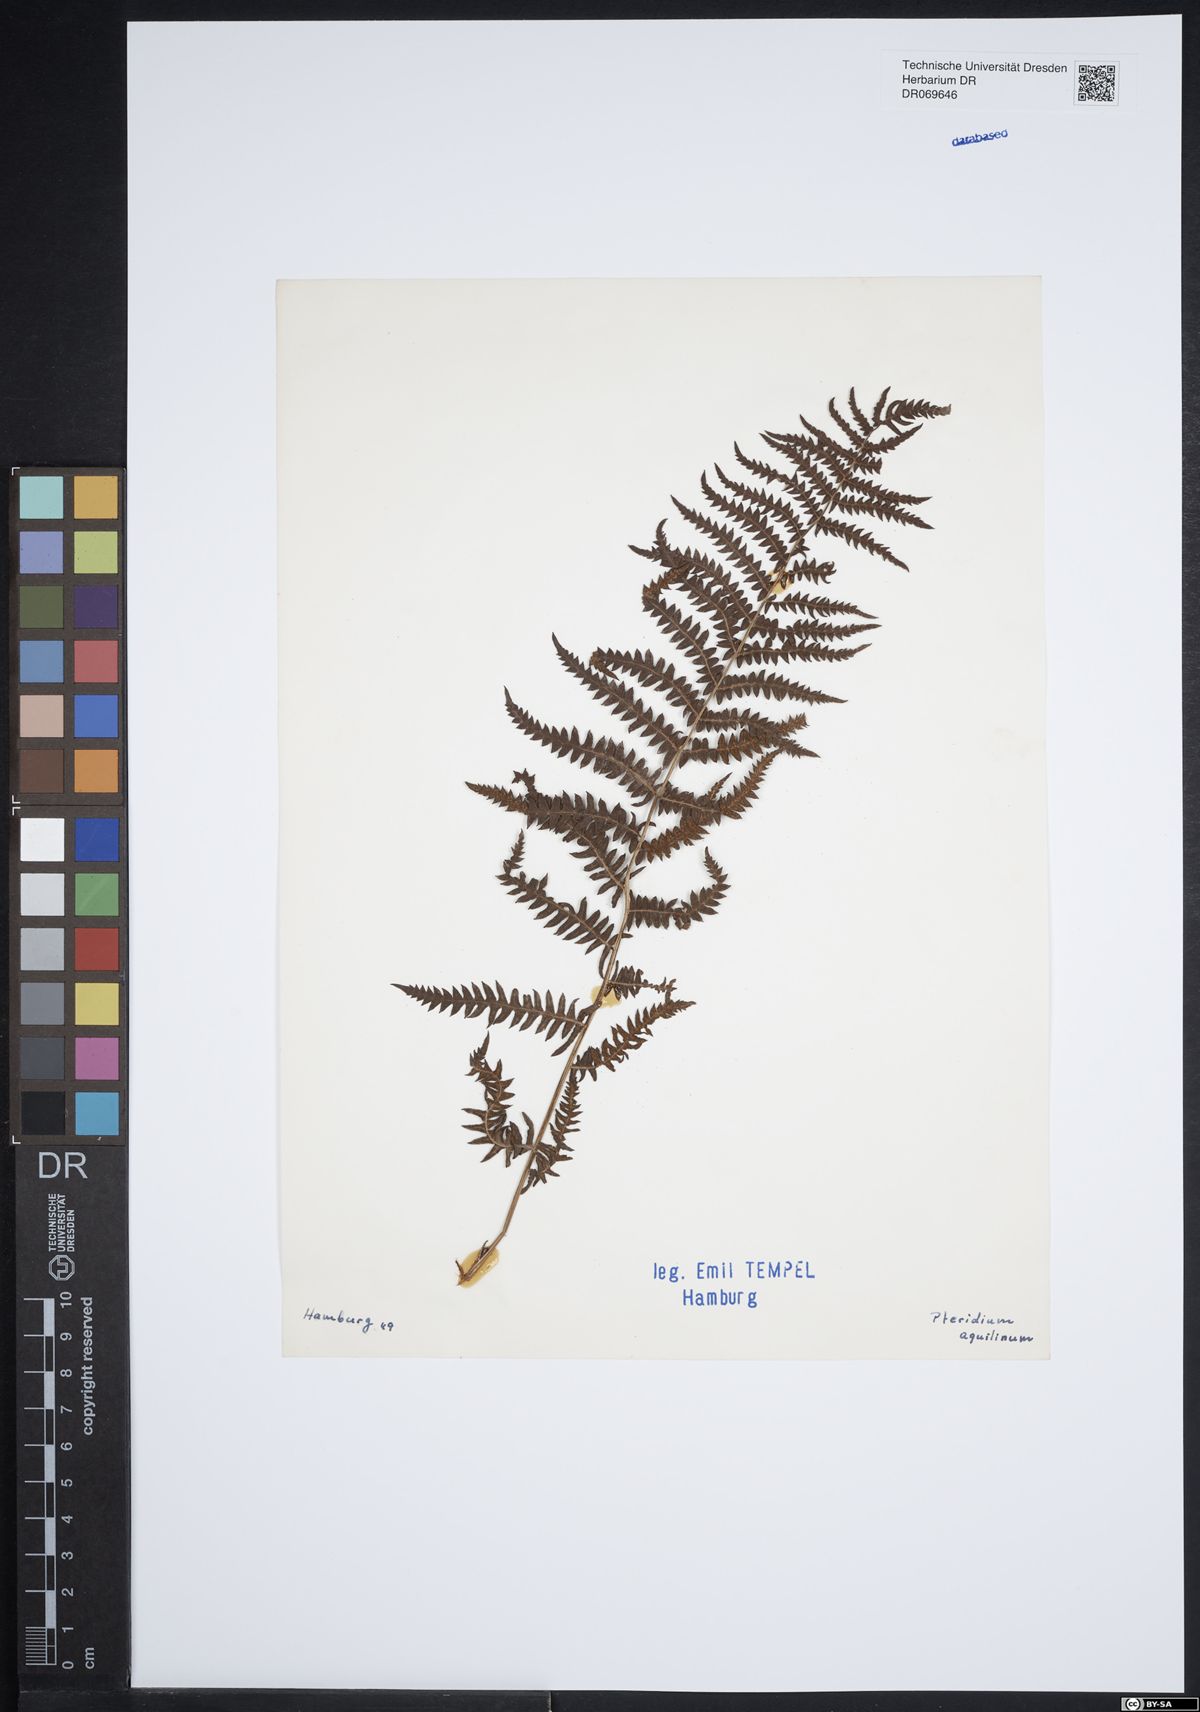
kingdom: Plantae
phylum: Tracheophyta
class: Polypodiopsida
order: Polypodiales
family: Dennstaedtiaceae
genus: Pteridium
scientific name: Pteridium aquilinum
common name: Bracken
